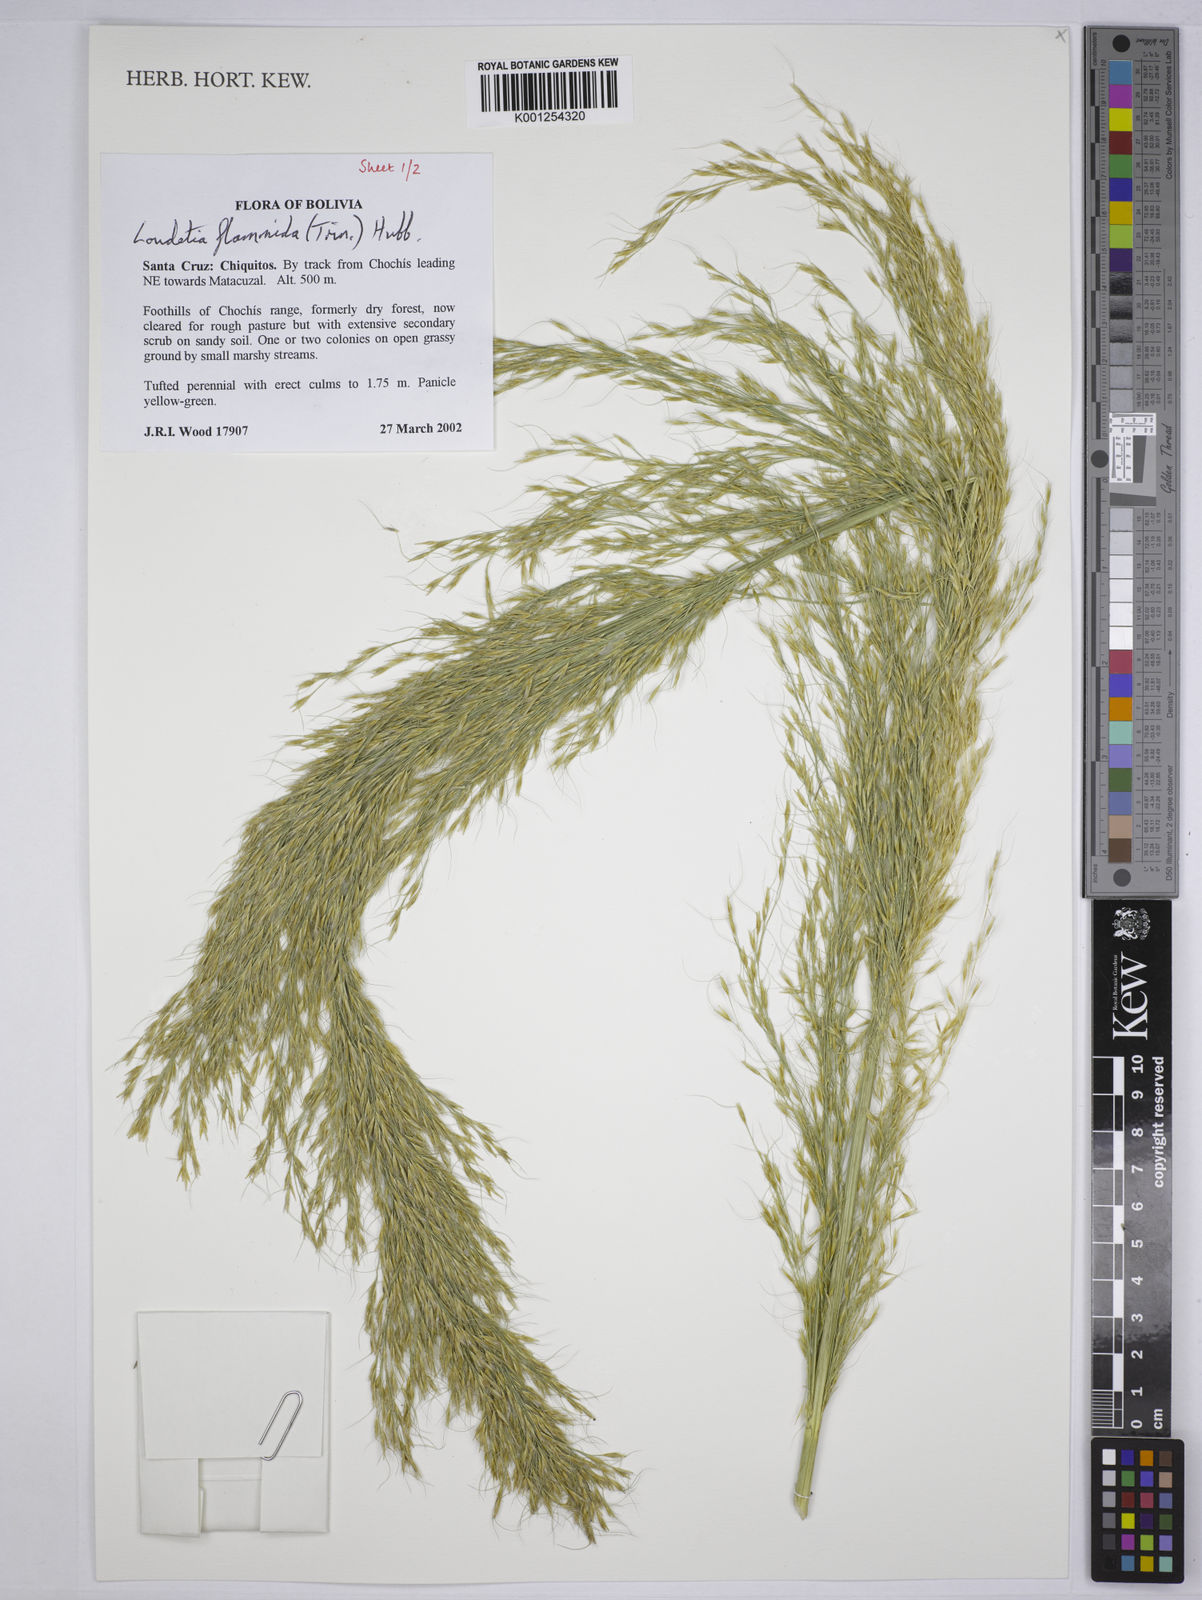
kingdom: Plantae
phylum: Tracheophyta
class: Liliopsida
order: Poales
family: Poaceae
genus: Loudetia
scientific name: Loudetia flammida
